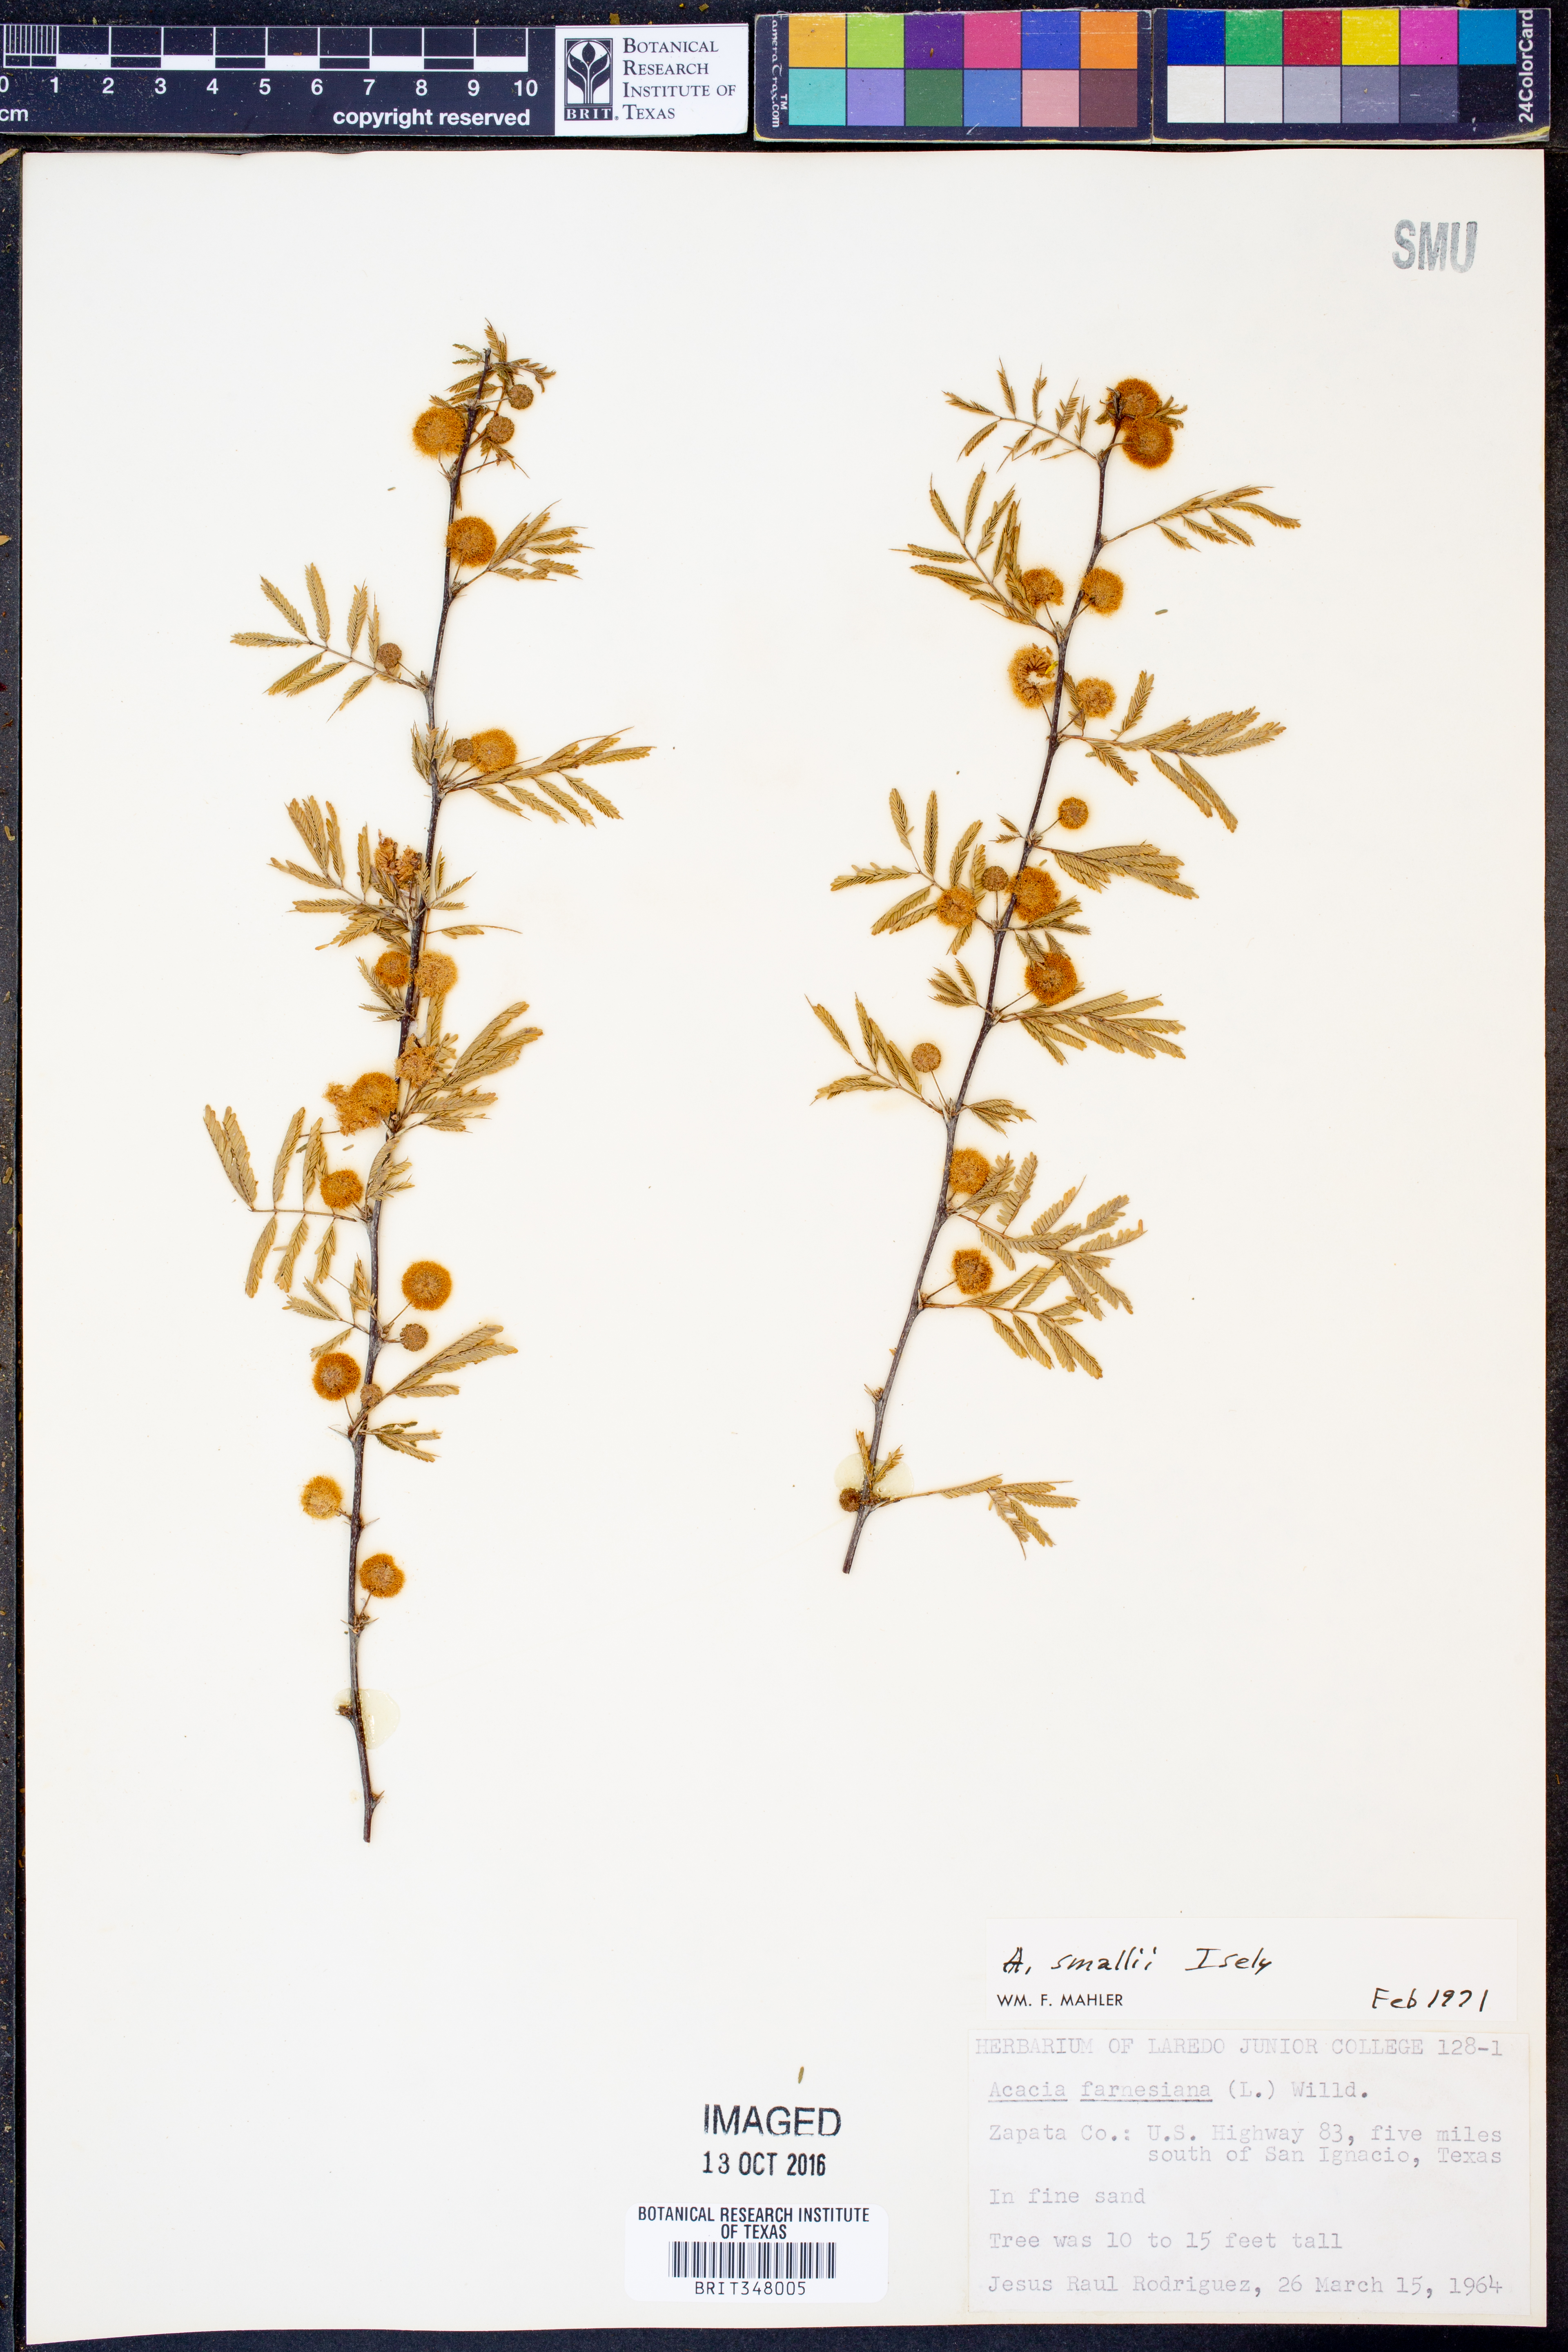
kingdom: Plantae
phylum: Tracheophyta
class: Magnoliopsida
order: Fabales
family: Fabaceae
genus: Vachellia
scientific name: Vachellia farnesiana
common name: Sweet acacia
